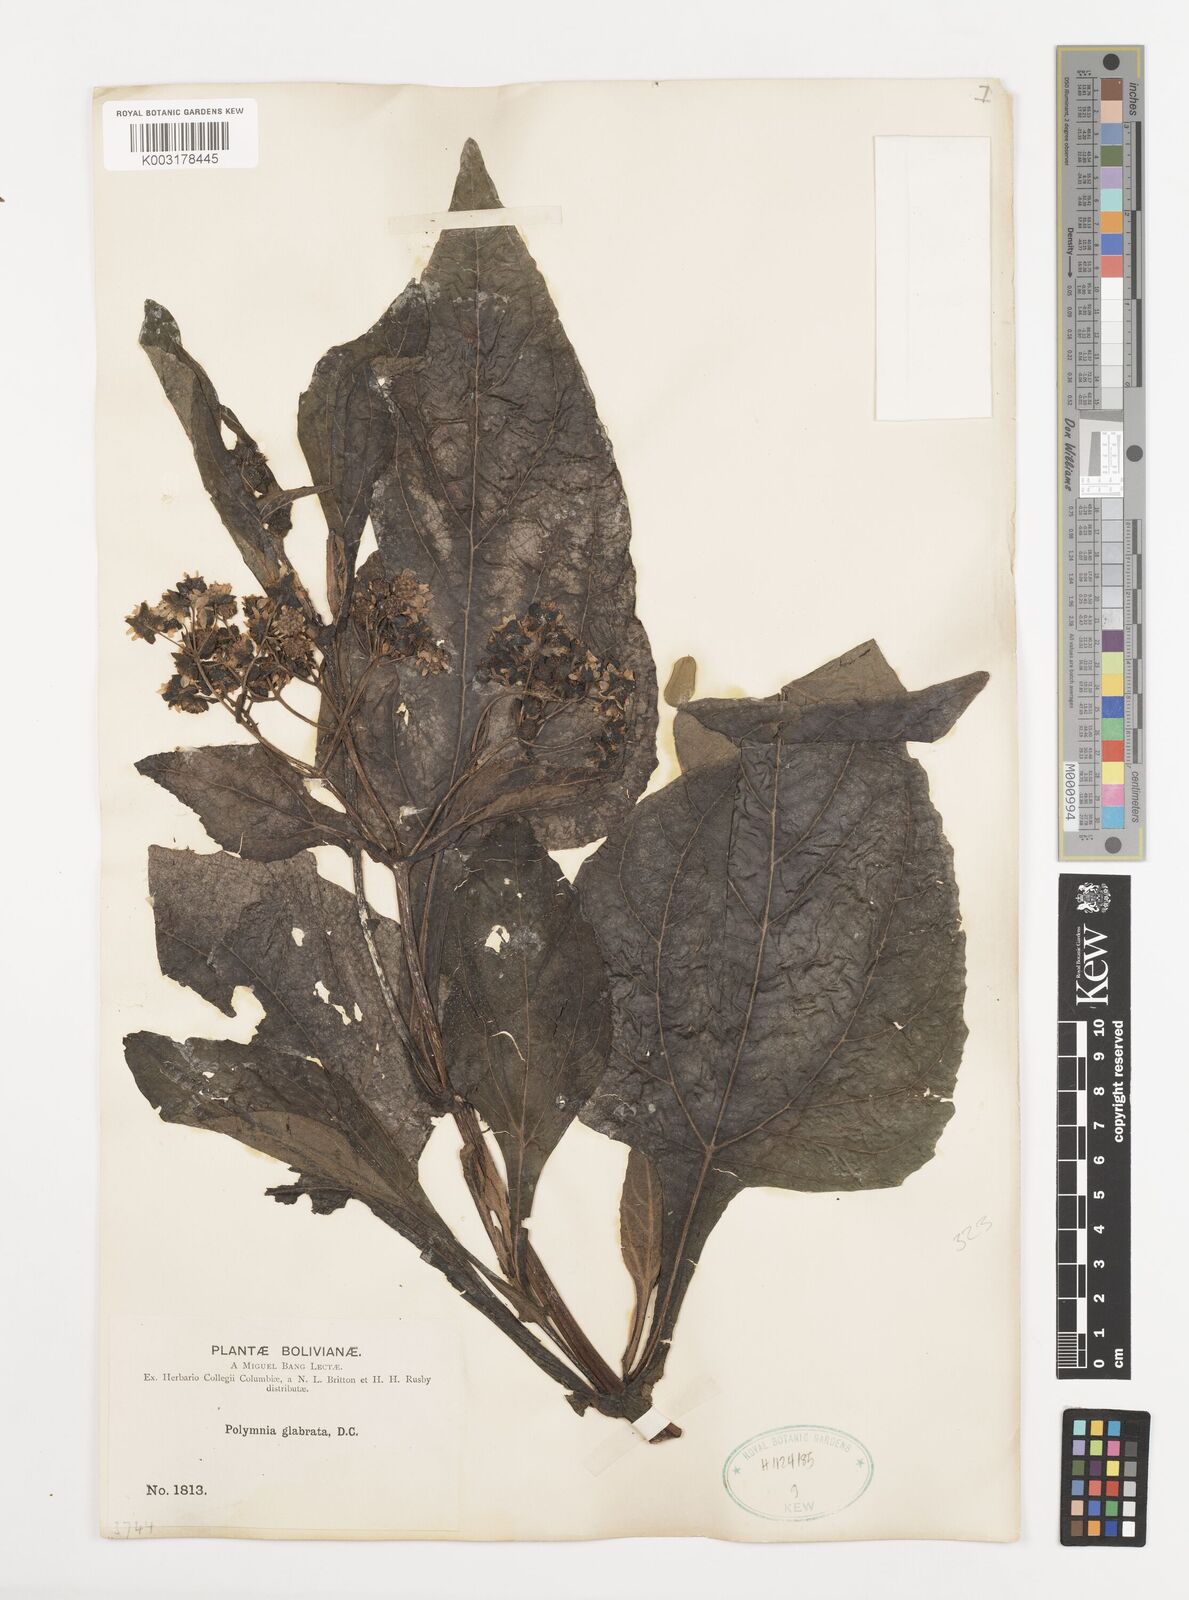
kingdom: Plantae
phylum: Tracheophyta
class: Magnoliopsida
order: Asterales
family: Asteraceae
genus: Smallanthus
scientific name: Smallanthus glabratus
